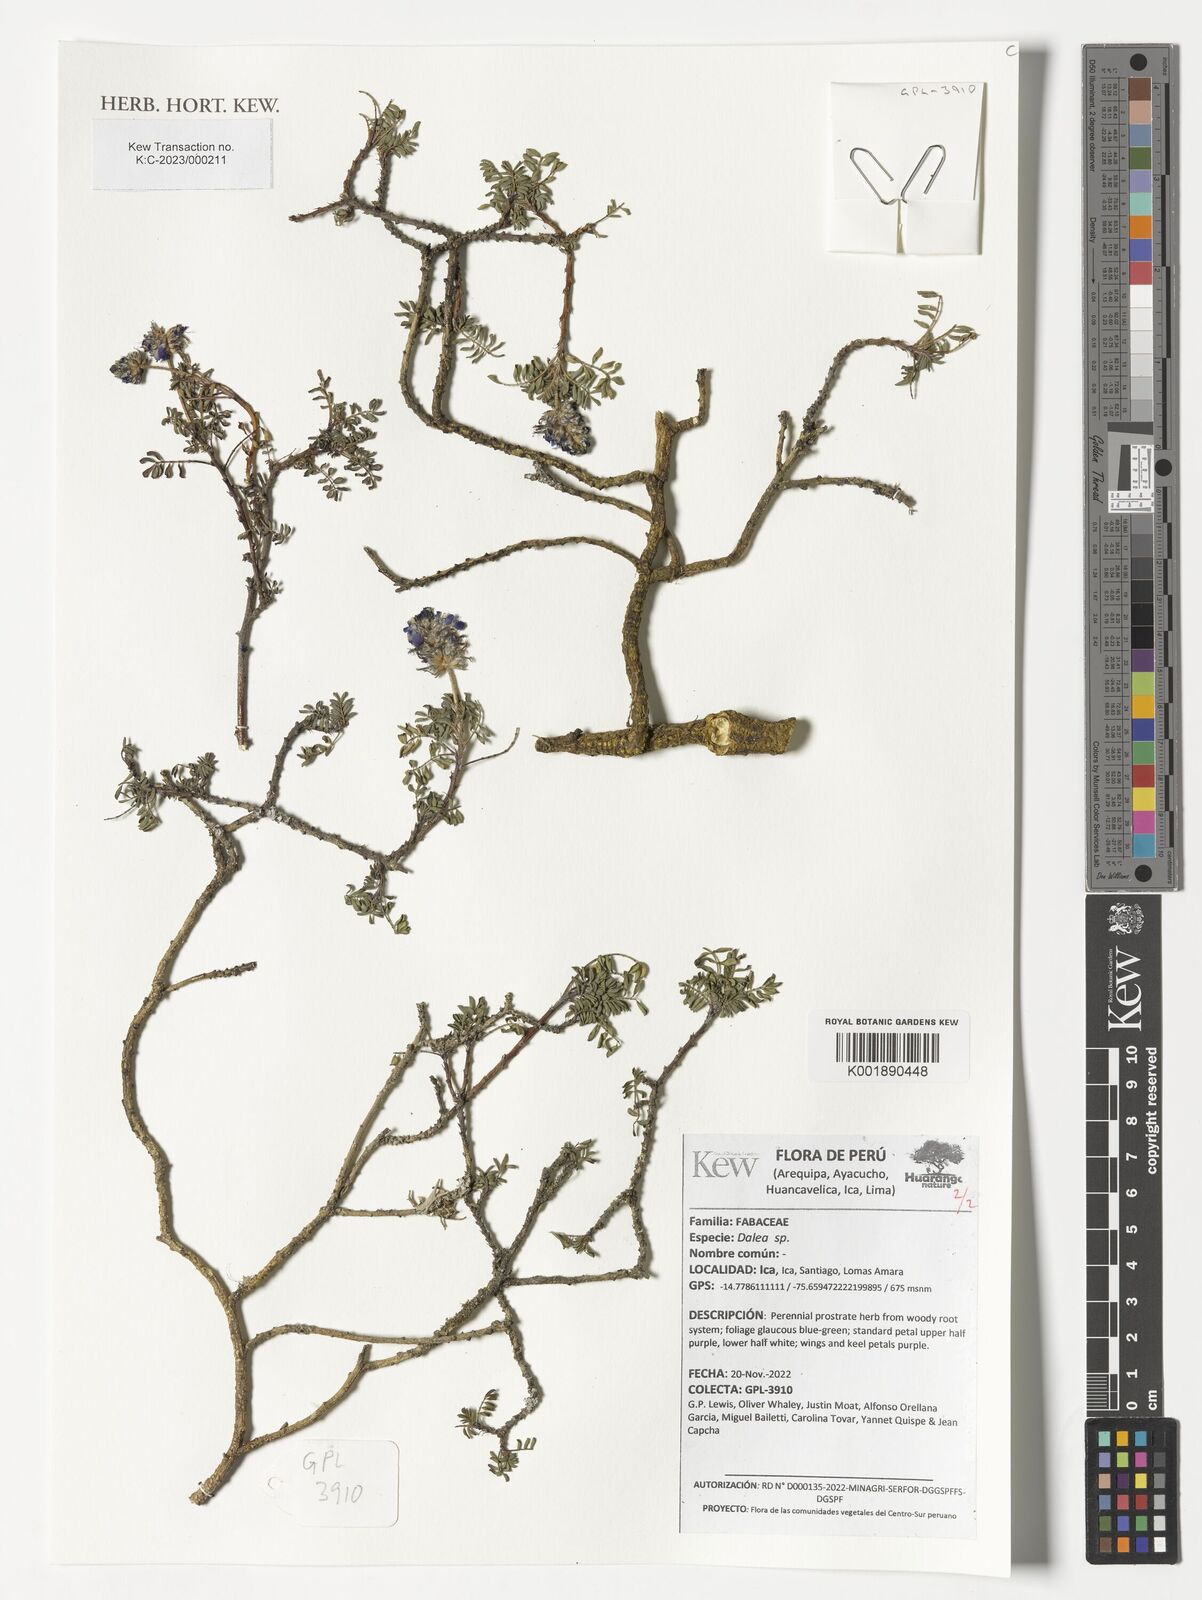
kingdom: Plantae
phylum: Tracheophyta
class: Magnoliopsida
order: Fabales
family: Fabaceae
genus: Dalea
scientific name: Dalea
